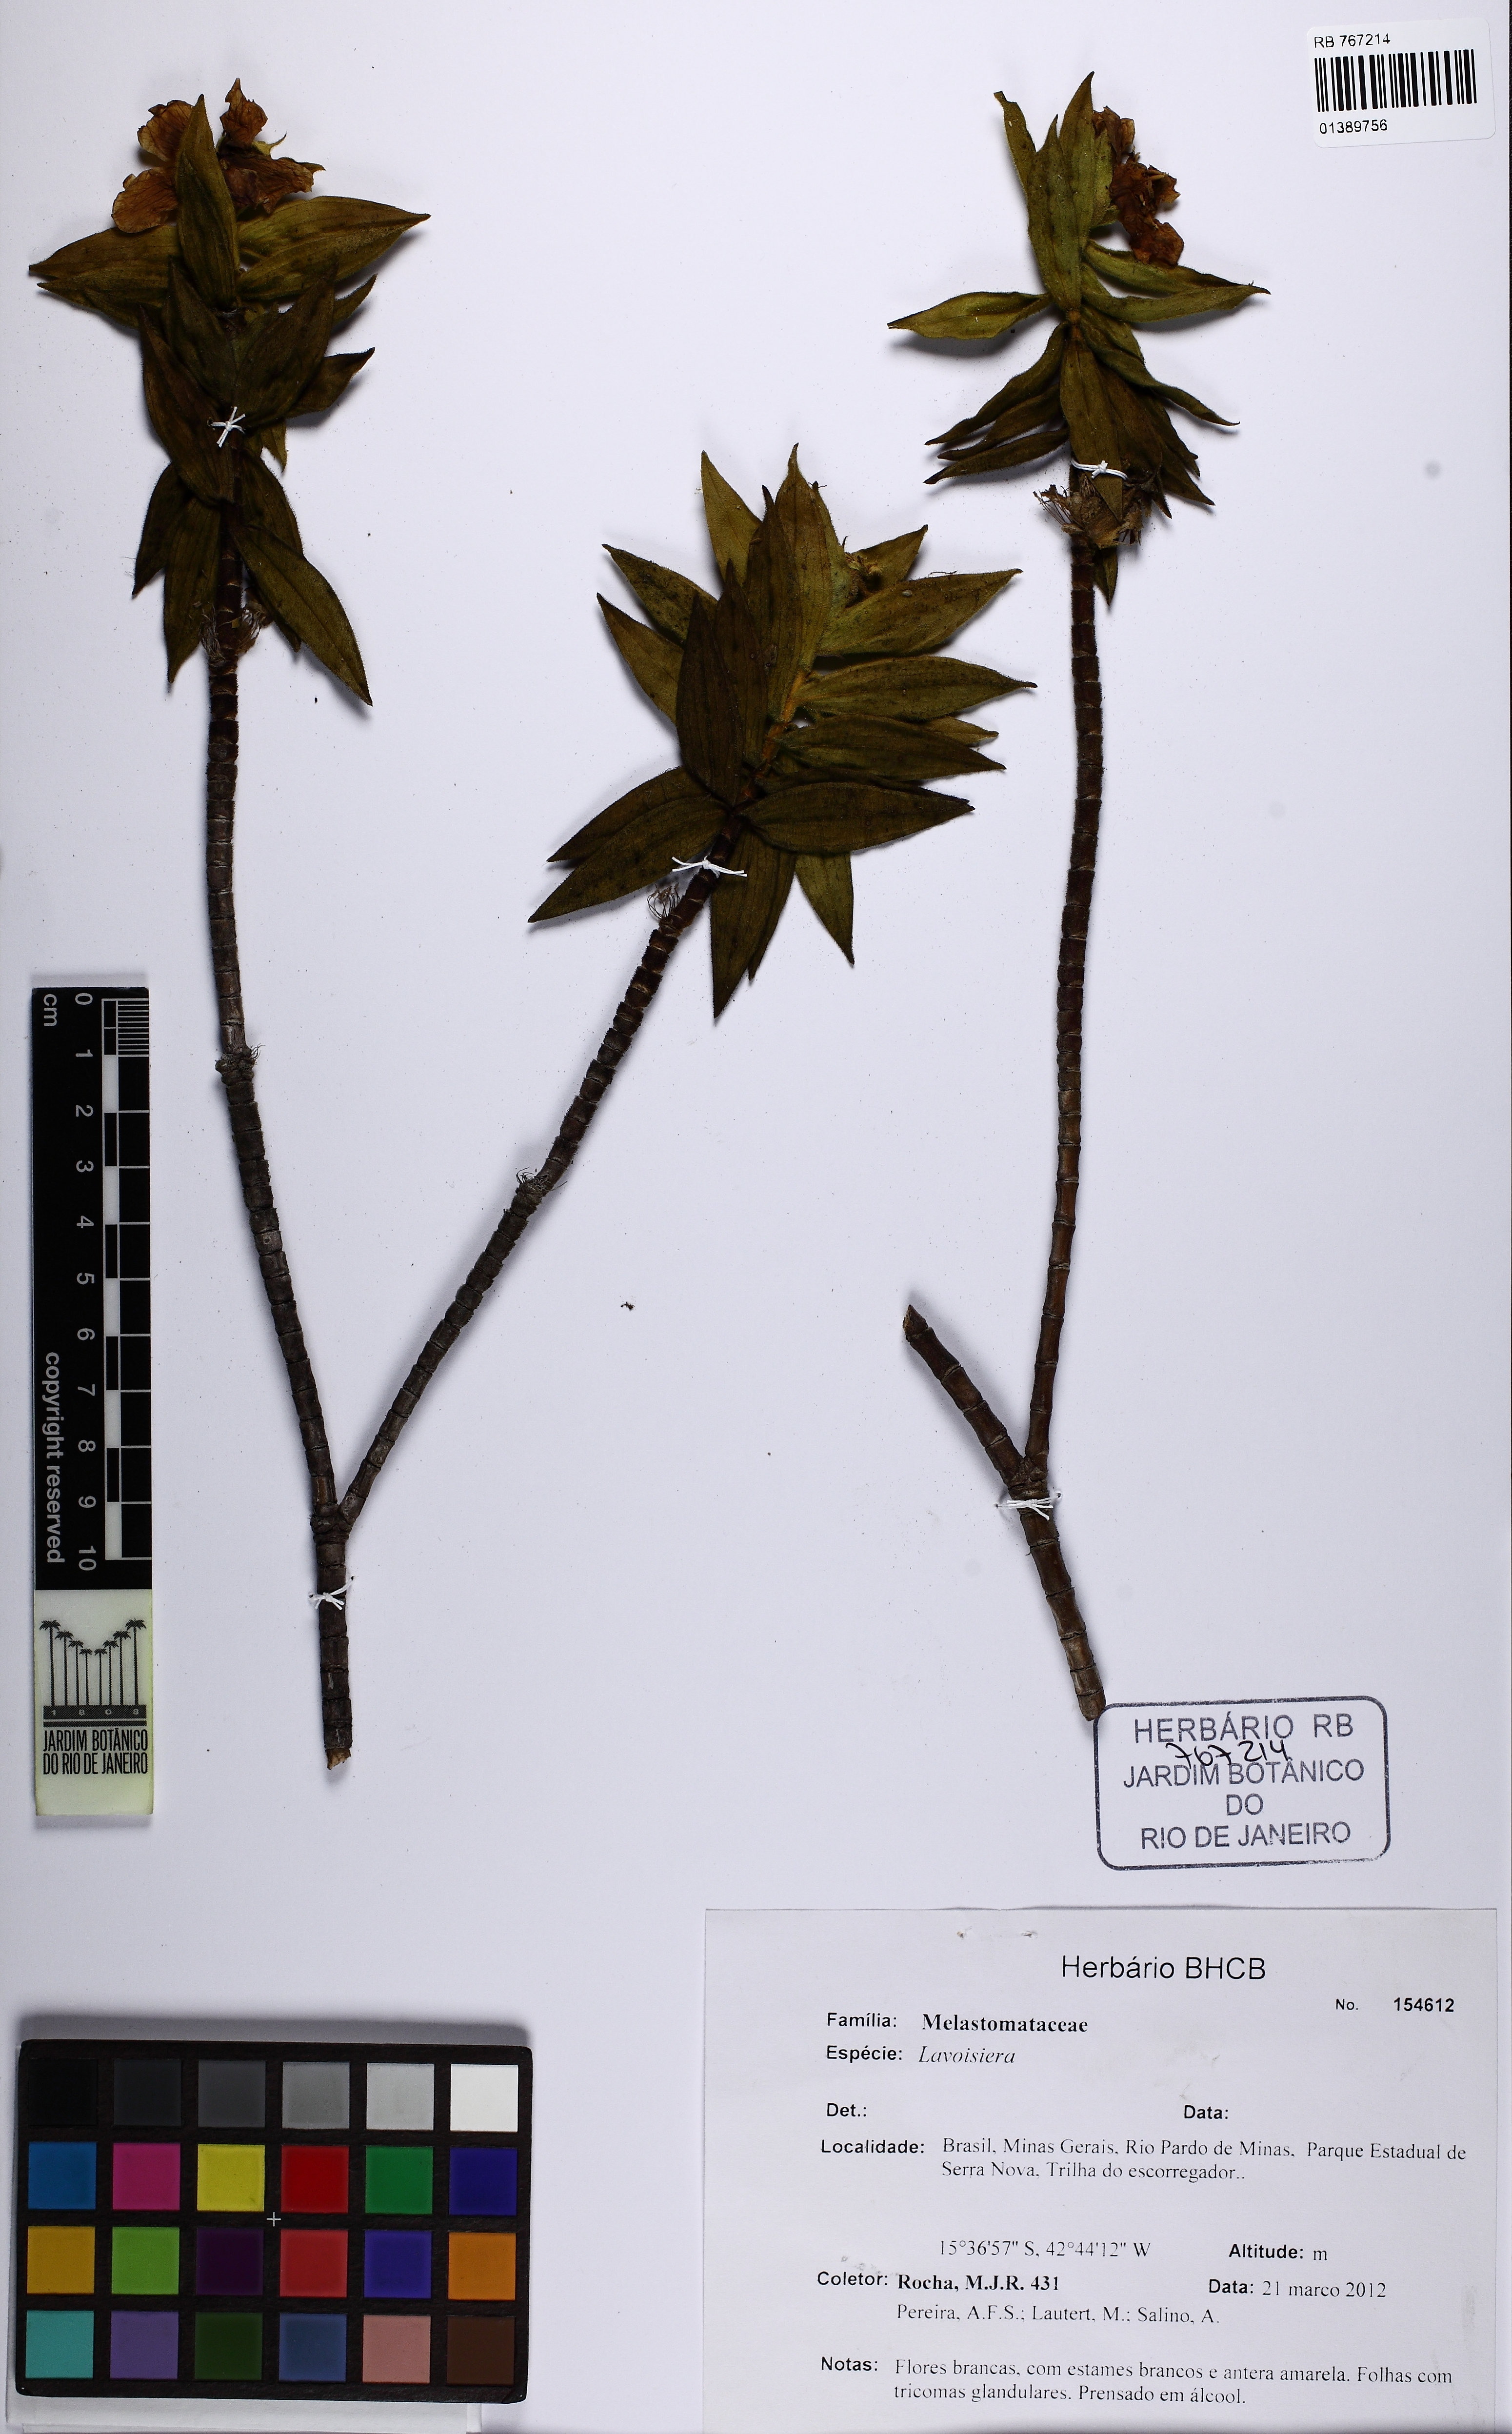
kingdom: Plantae
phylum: Tracheophyta
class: Magnoliopsida
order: Myrtales
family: Melastomataceae
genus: Microlicia
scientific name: Microlicia
